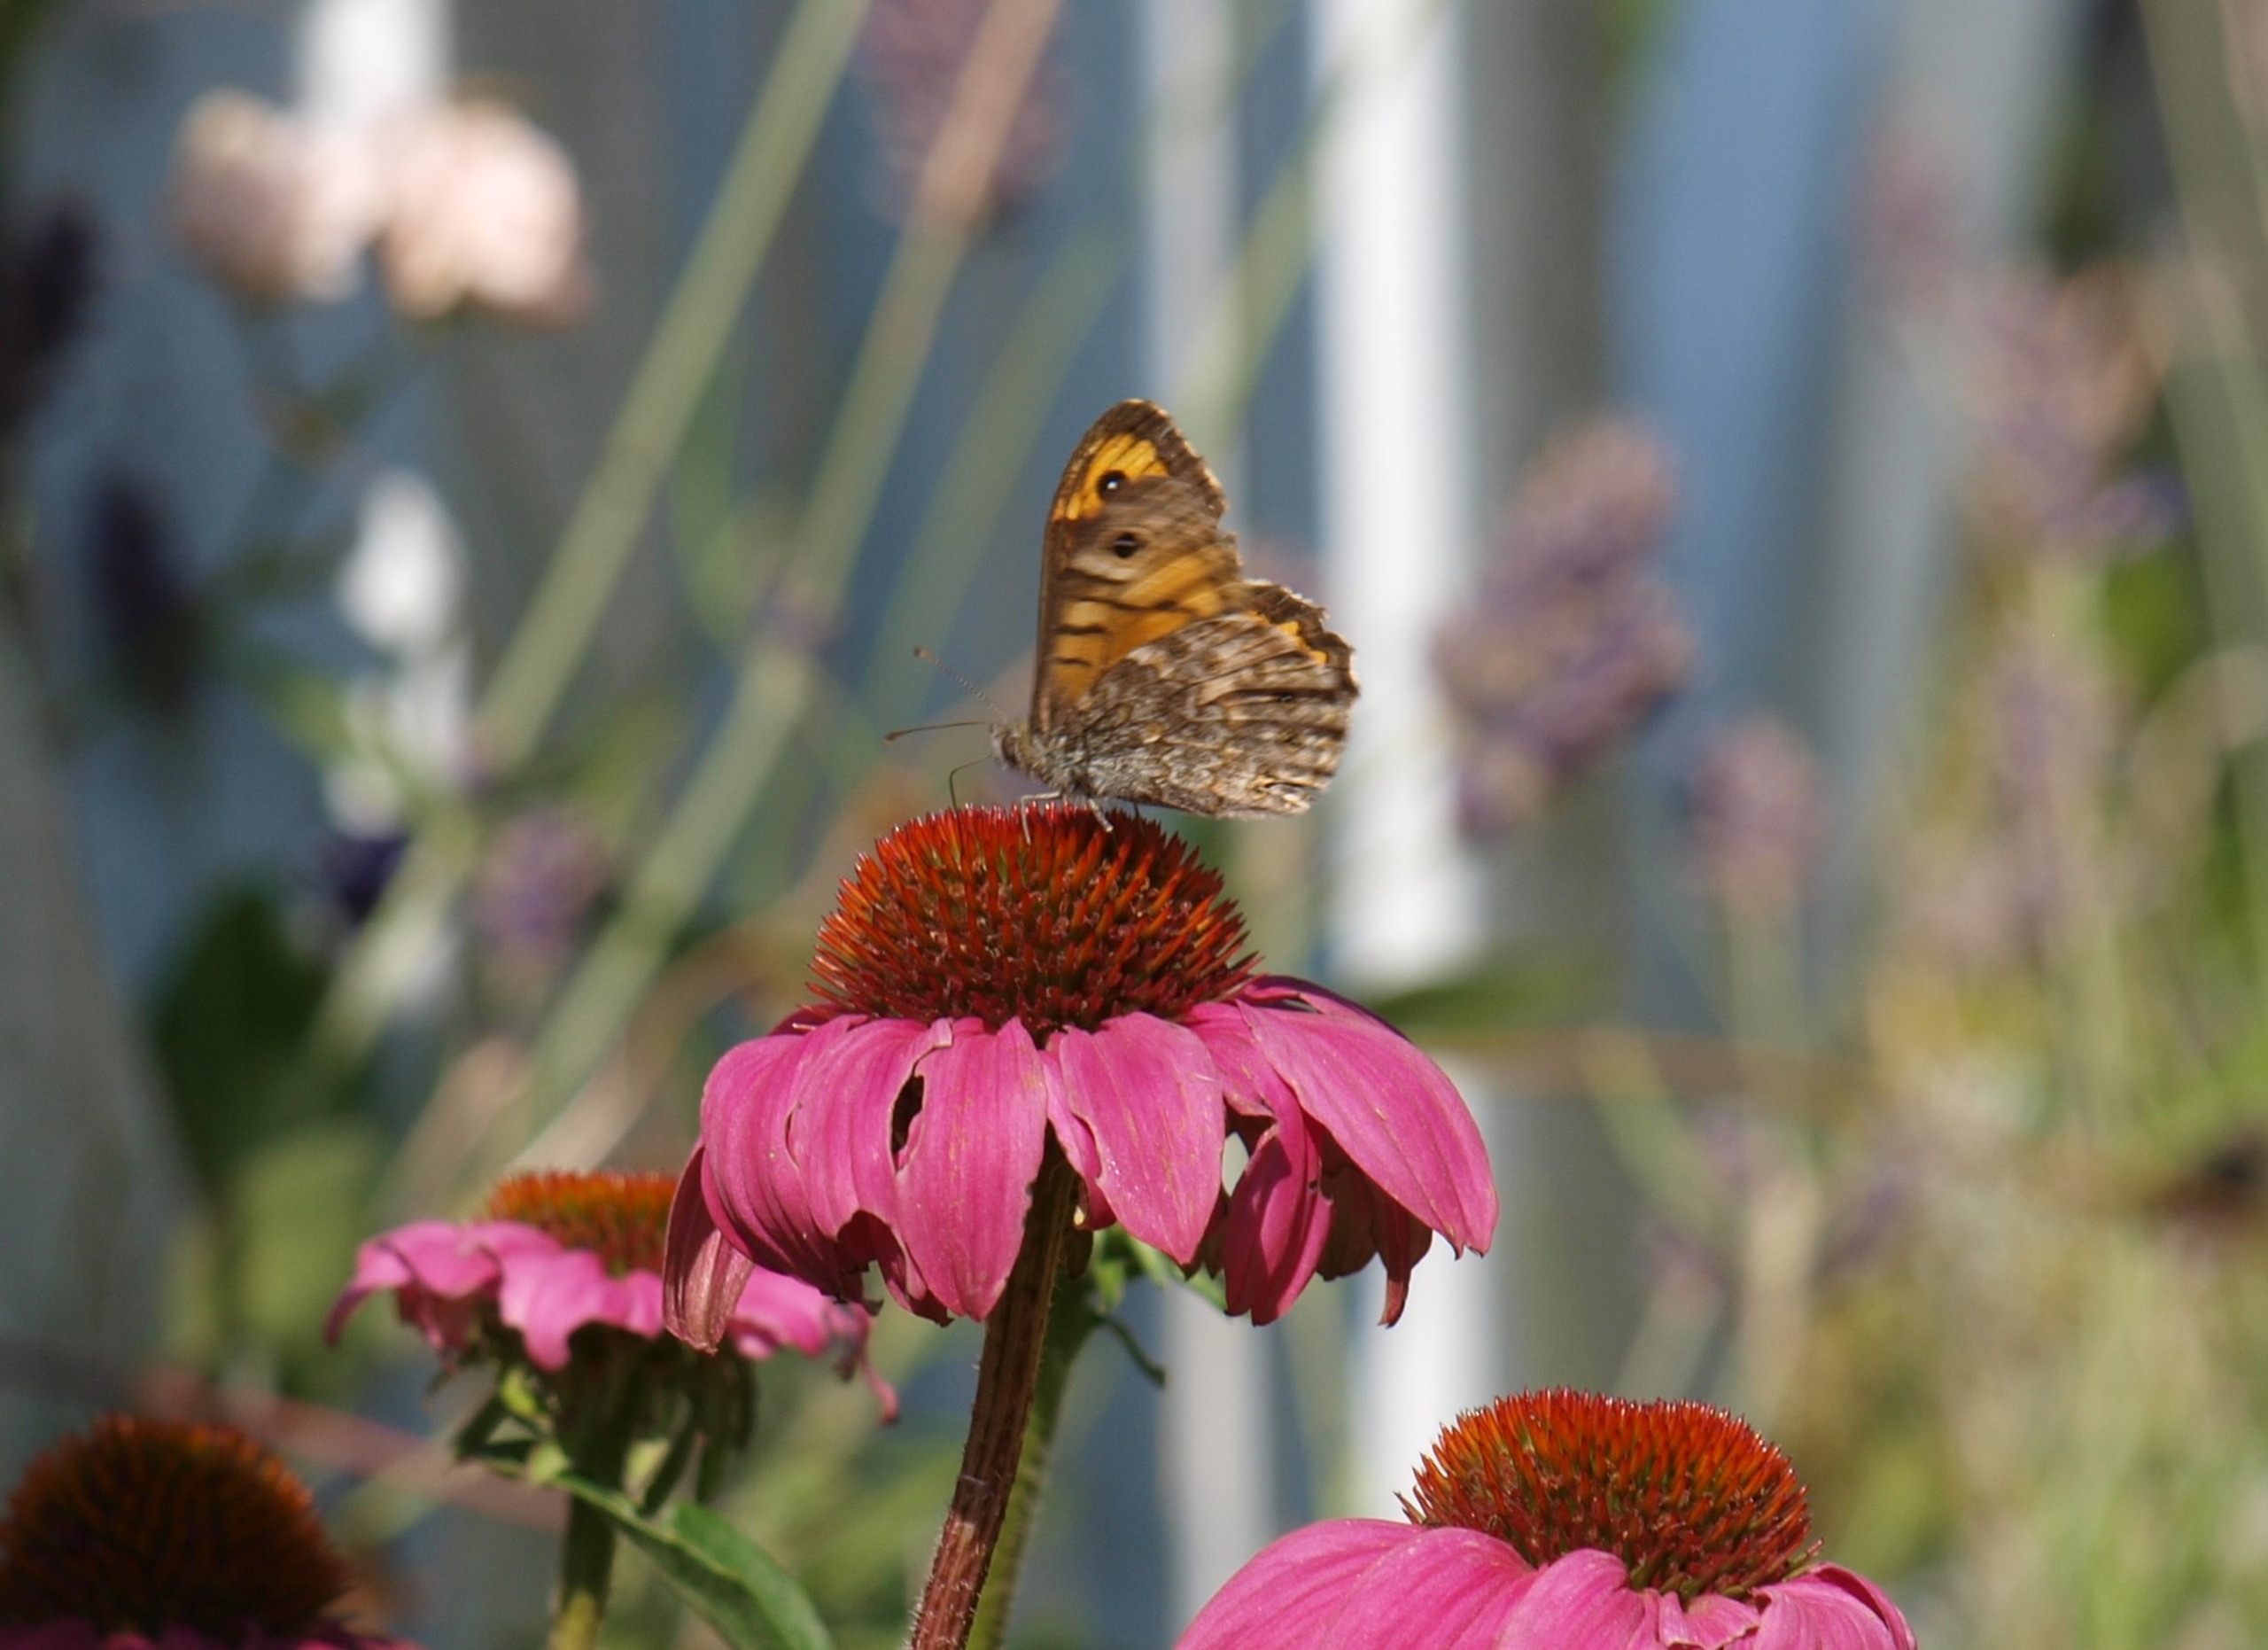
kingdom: Animalia
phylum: Arthropoda
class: Insecta
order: Lepidoptera
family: Nymphalidae
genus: Pararge
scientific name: Pararge Lasiommata megera
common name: Vejrandøje
